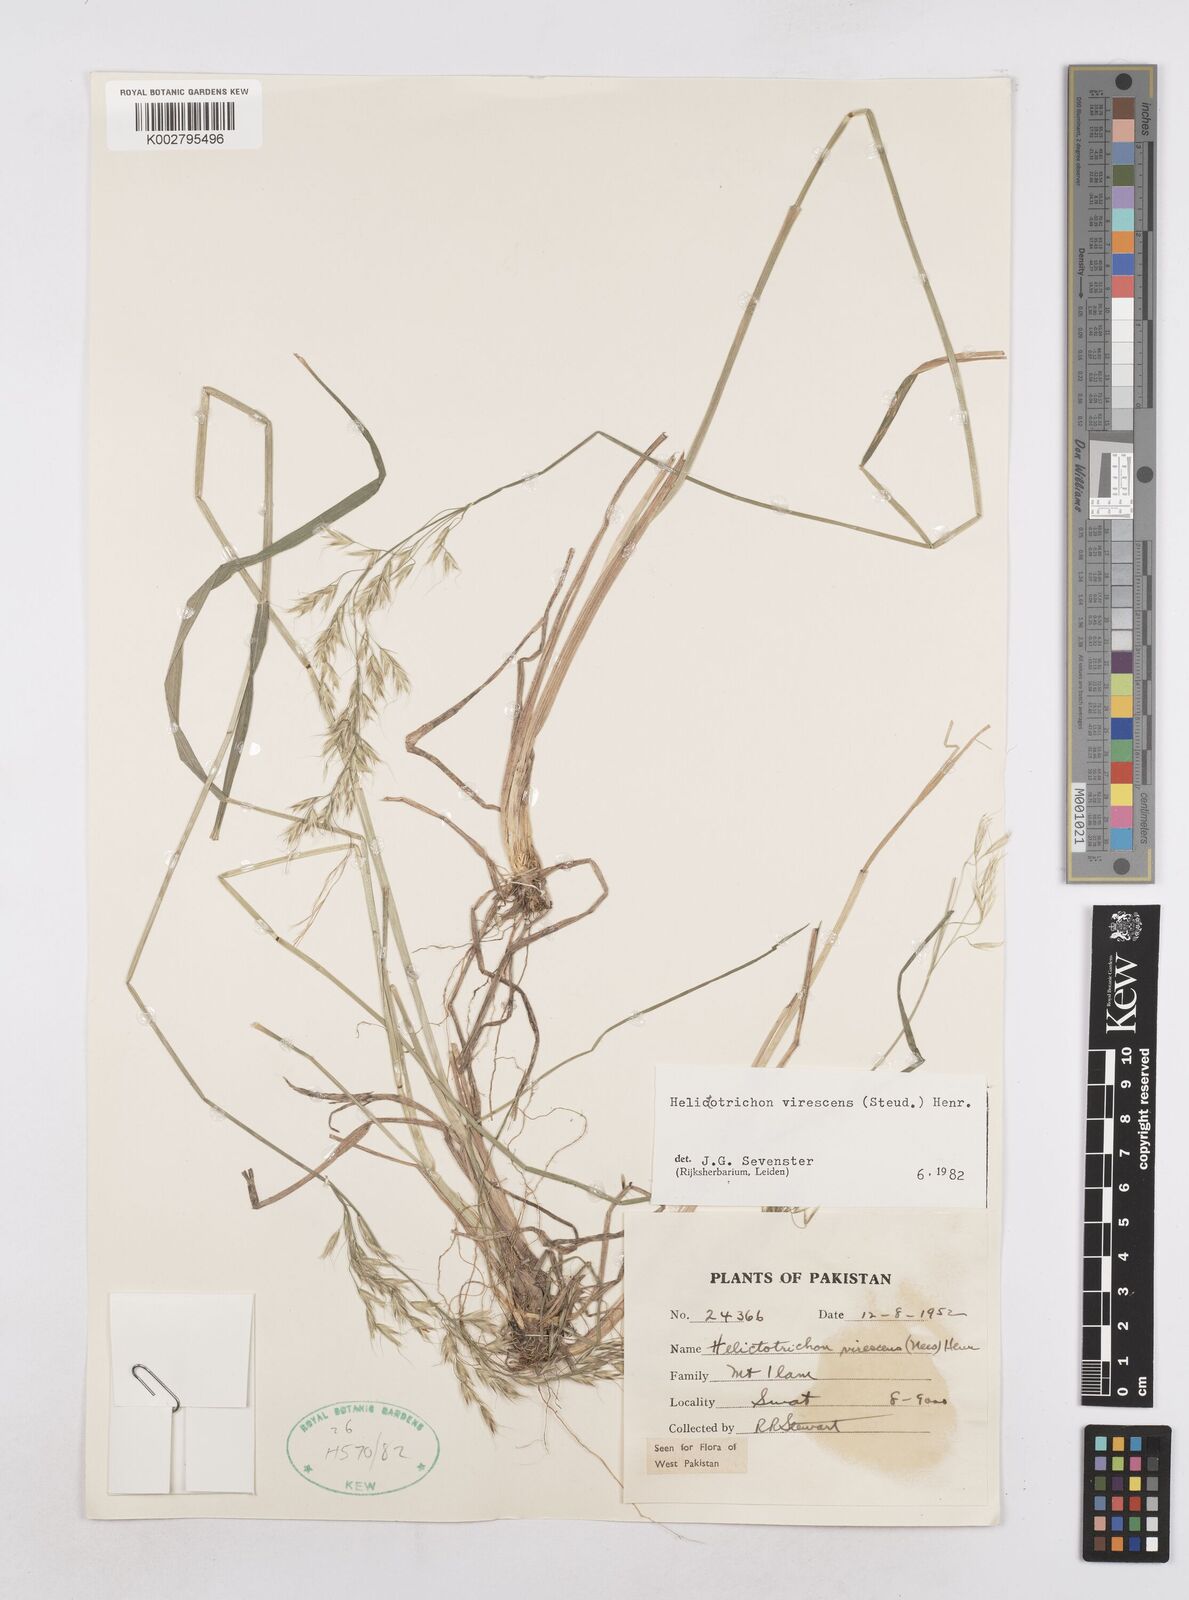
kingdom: Plantae
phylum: Tracheophyta
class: Liliopsida
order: Poales
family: Poaceae
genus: Trisetopsis
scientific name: Trisetopsis junghuhnii
